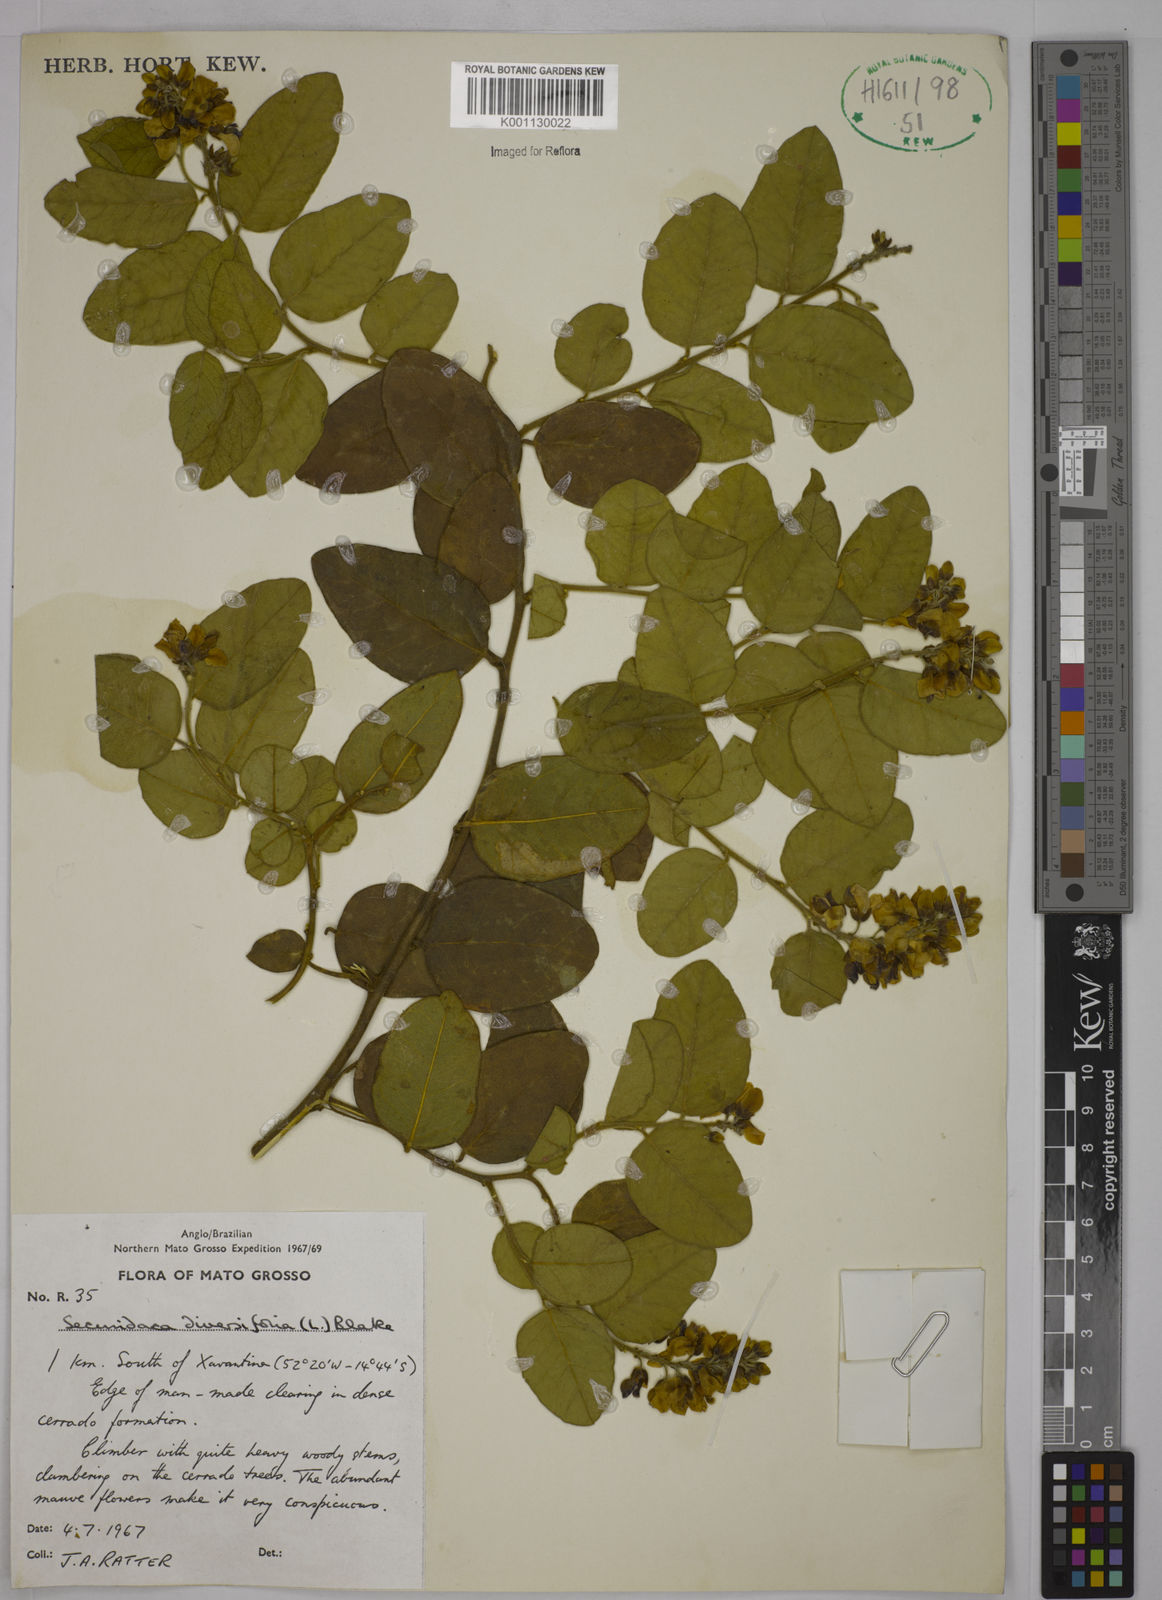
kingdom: Plantae
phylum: Tracheophyta
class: Magnoliopsida
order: Fabales
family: Polygalaceae
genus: Securidaca
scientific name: Securidaca diversifolia
